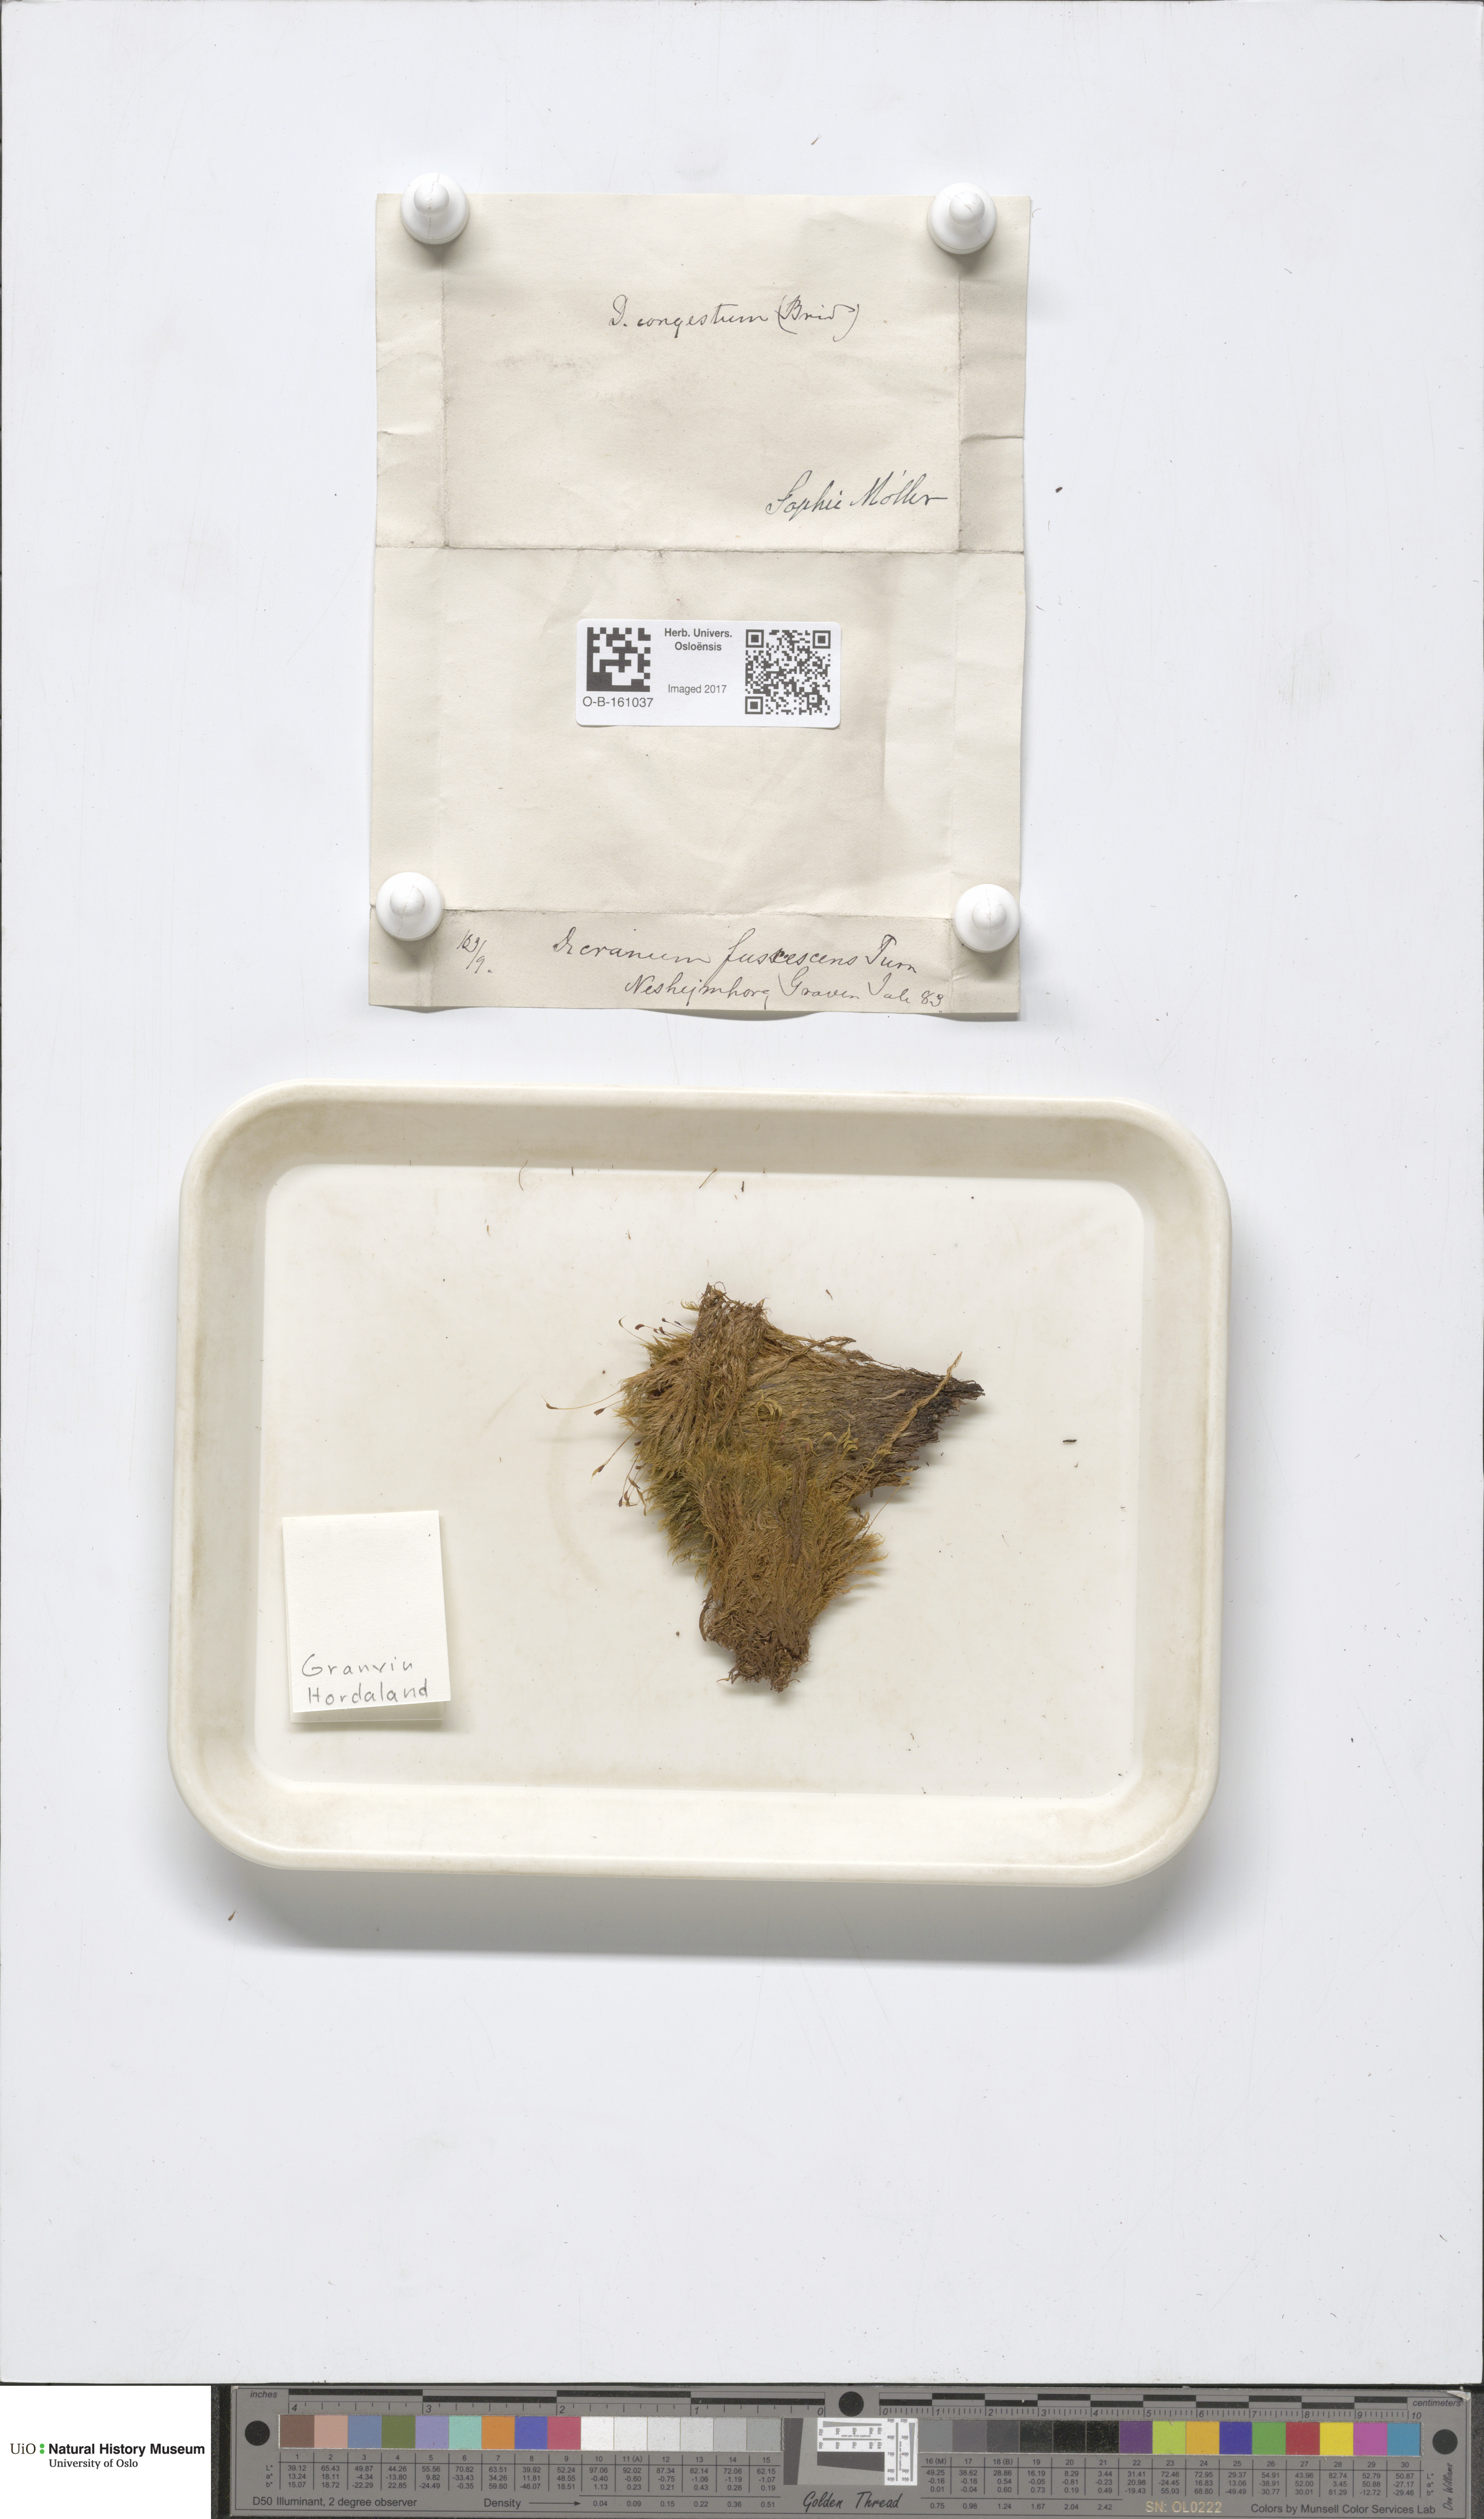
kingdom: Plantae
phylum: Bryophyta
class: Bryopsida
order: Dicranales
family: Dicranaceae
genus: Dicranum
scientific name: Dicranum fuscescens
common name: Curly heron's-bill moss
